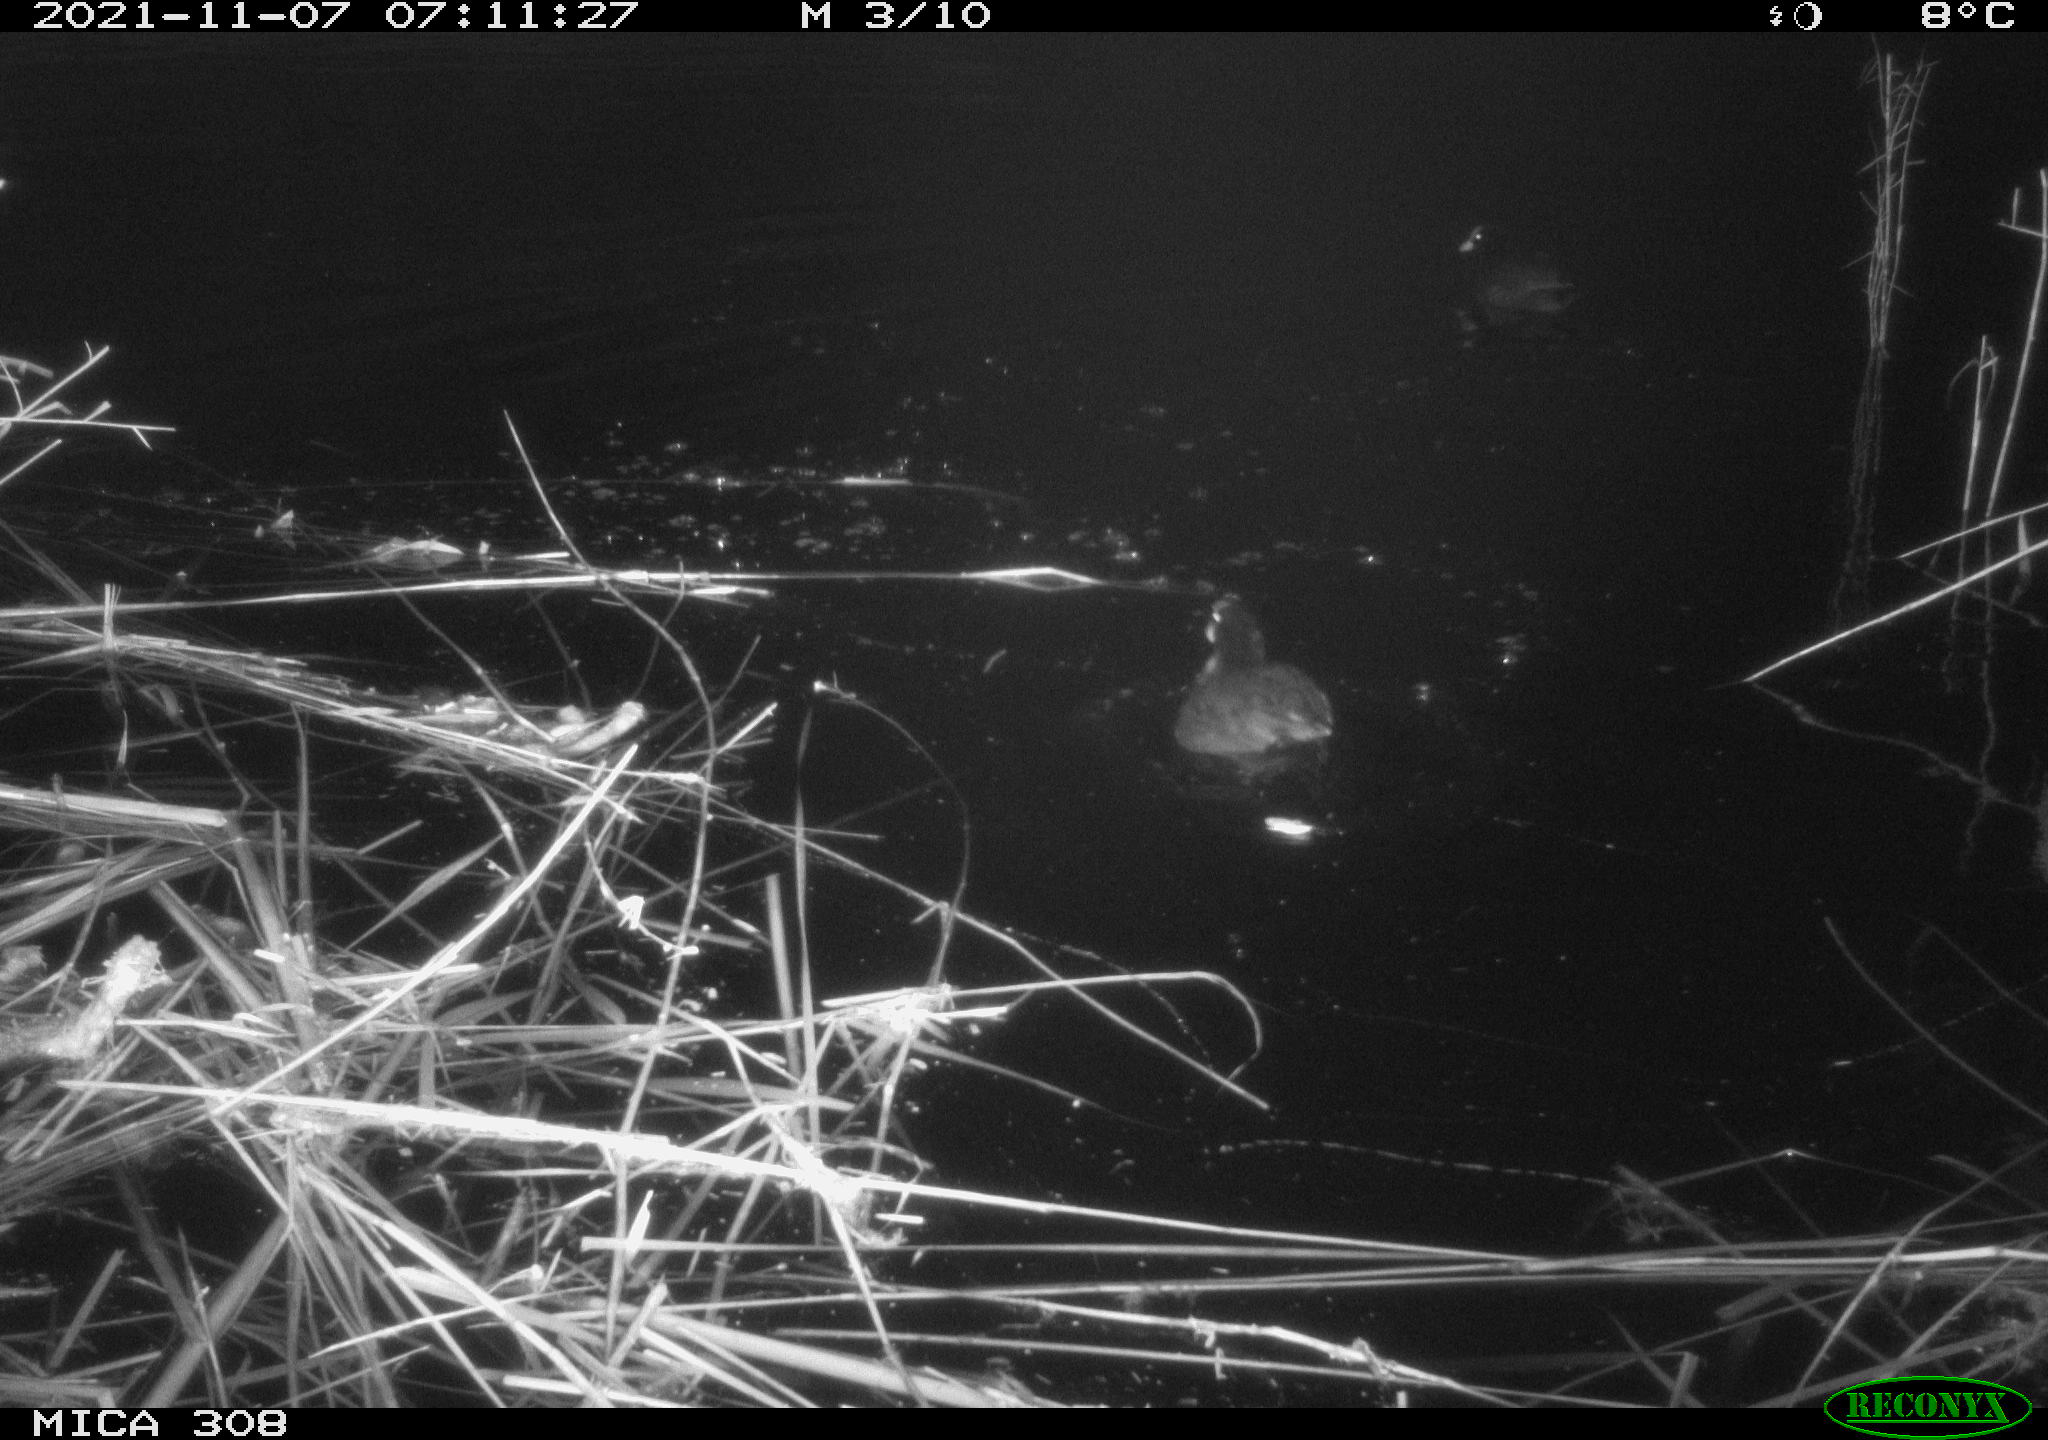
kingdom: Animalia
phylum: Chordata
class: Aves
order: Gruiformes
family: Rallidae
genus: Fulica
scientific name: Fulica atra
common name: Eurasian coot
